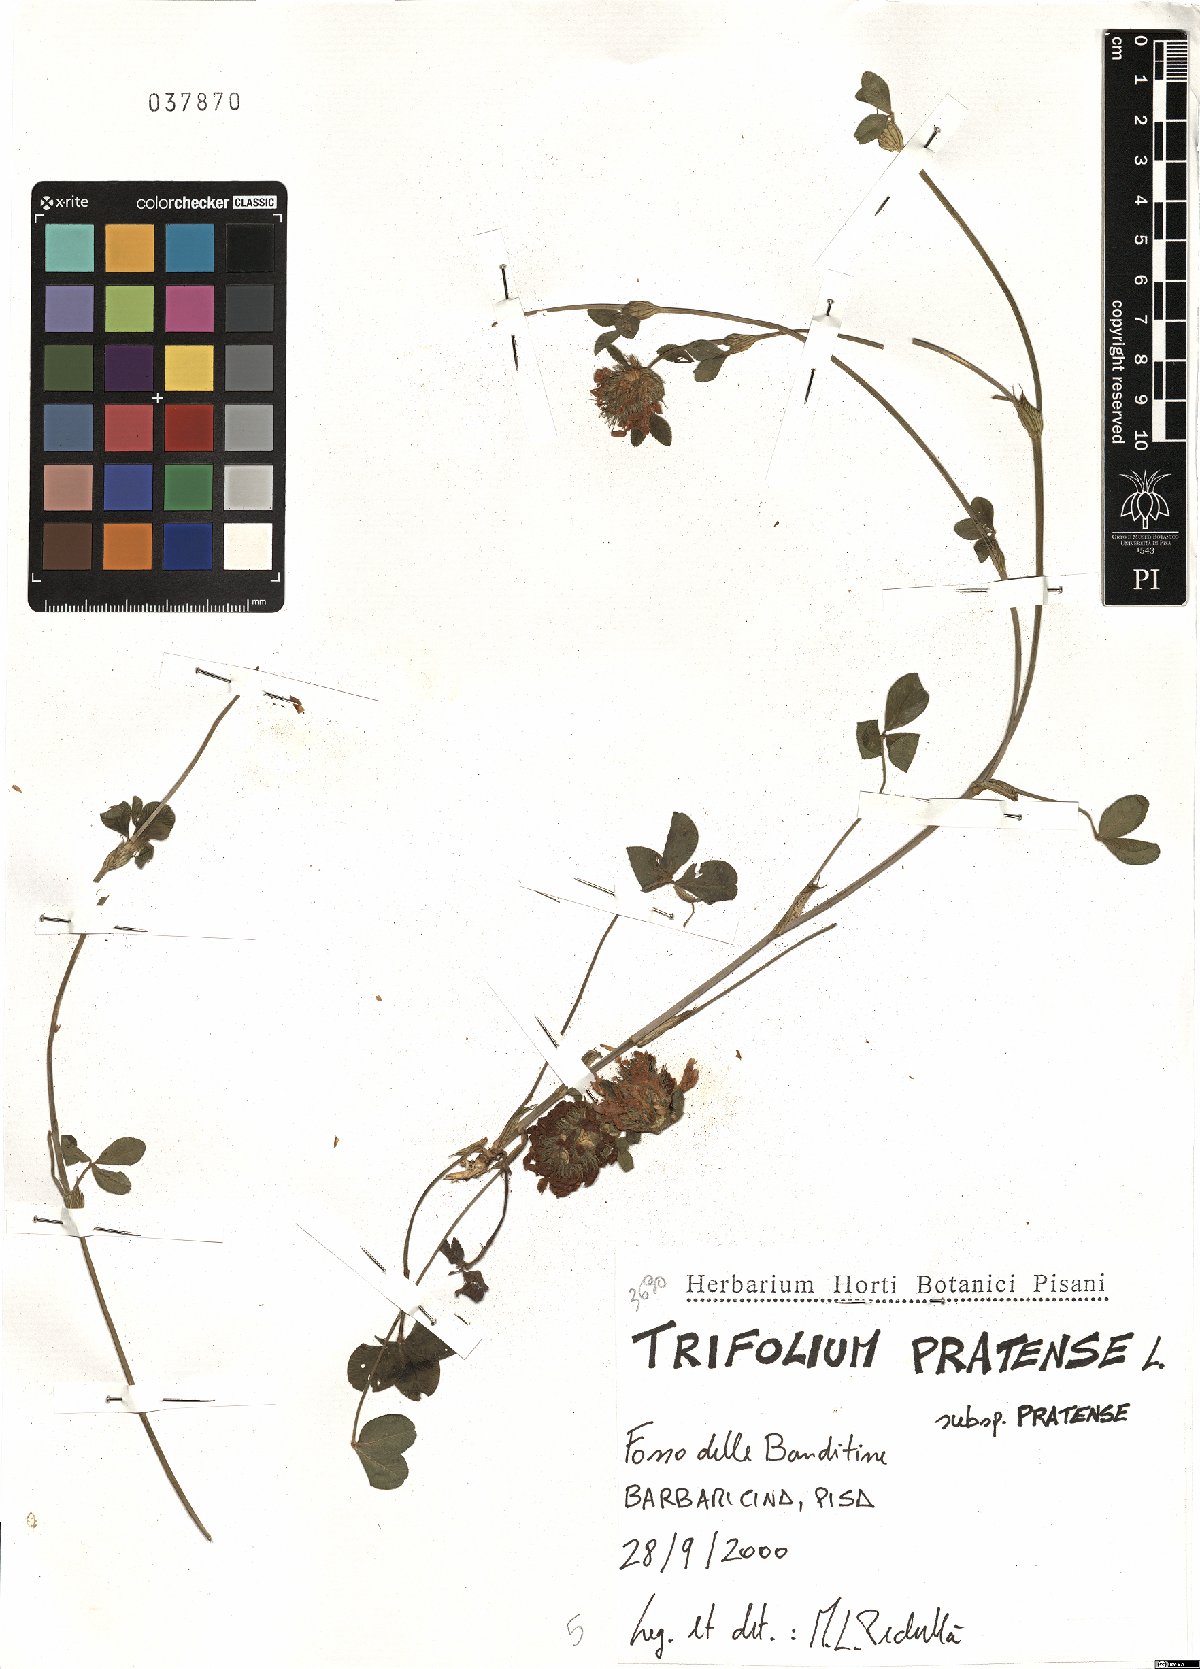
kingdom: Plantae
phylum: Tracheophyta
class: Magnoliopsida
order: Fabales
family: Fabaceae
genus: Trifolium
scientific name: Trifolium pratense
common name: Red clover
